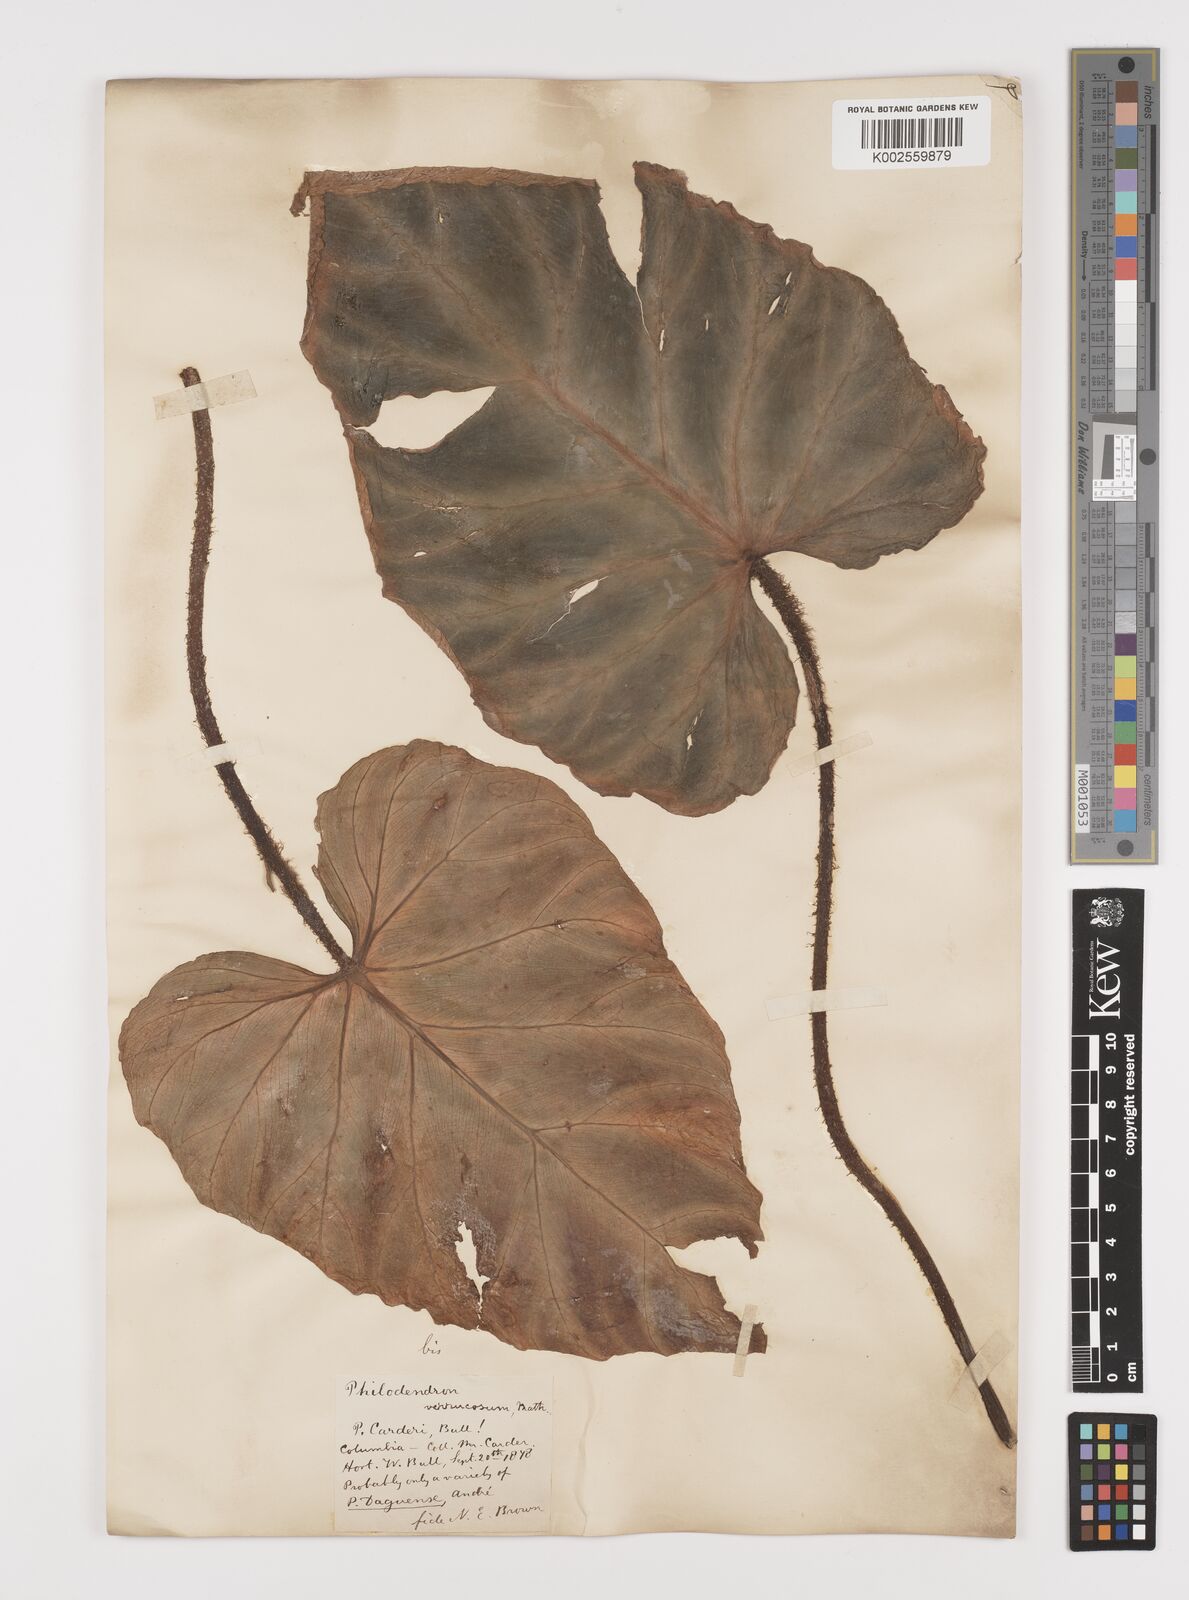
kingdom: Plantae
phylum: Tracheophyta
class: Liliopsida
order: Alismatales
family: Araceae
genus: Philodendron
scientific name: Philodendron verrucosum
